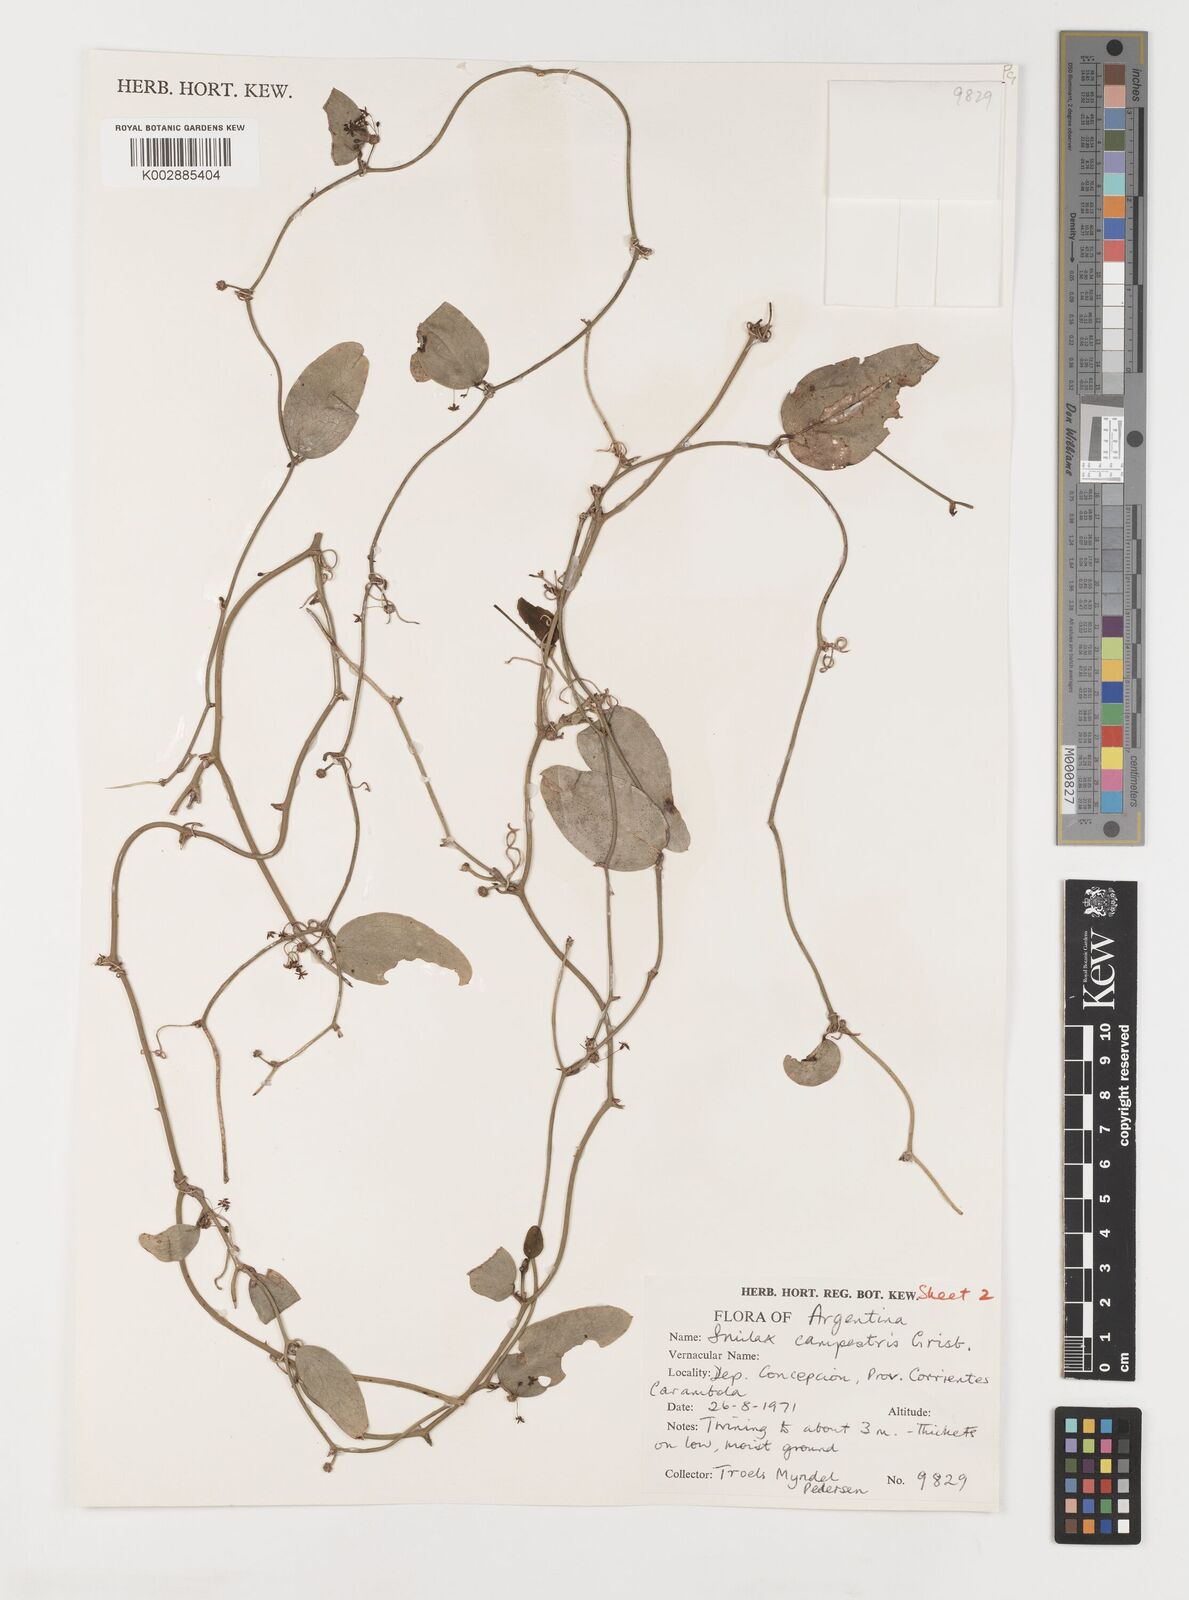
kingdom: Plantae
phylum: Tracheophyta
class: Liliopsida
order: Liliales
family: Smilacaceae
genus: Smilax
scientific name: Smilax campestris
